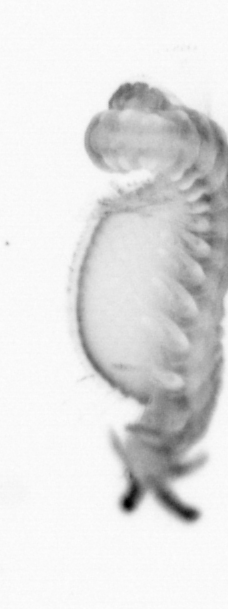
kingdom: Animalia
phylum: Annelida
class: Polychaeta
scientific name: Polychaeta
